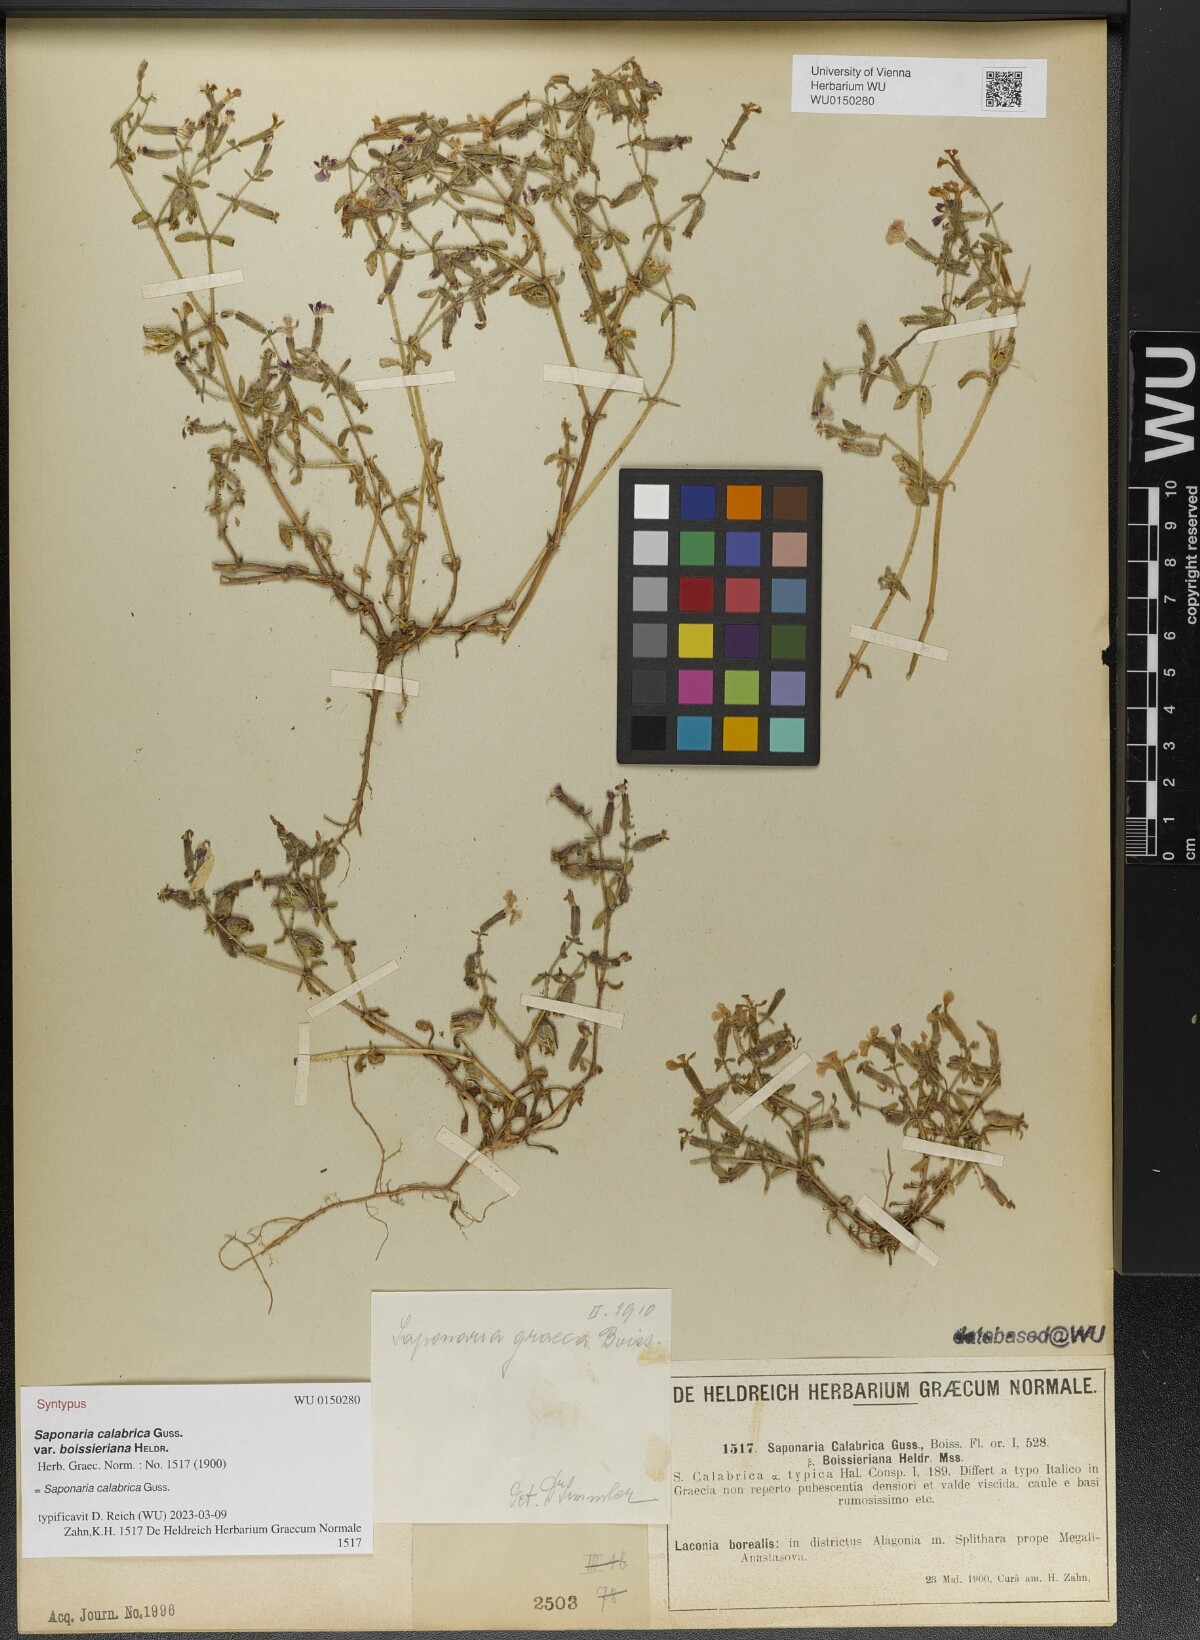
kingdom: Plantae
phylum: Tracheophyta
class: Magnoliopsida
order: Caryophyllales
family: Caryophyllaceae
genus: Saponaria
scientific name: Saponaria calabrica
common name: Adriatic soapwort
